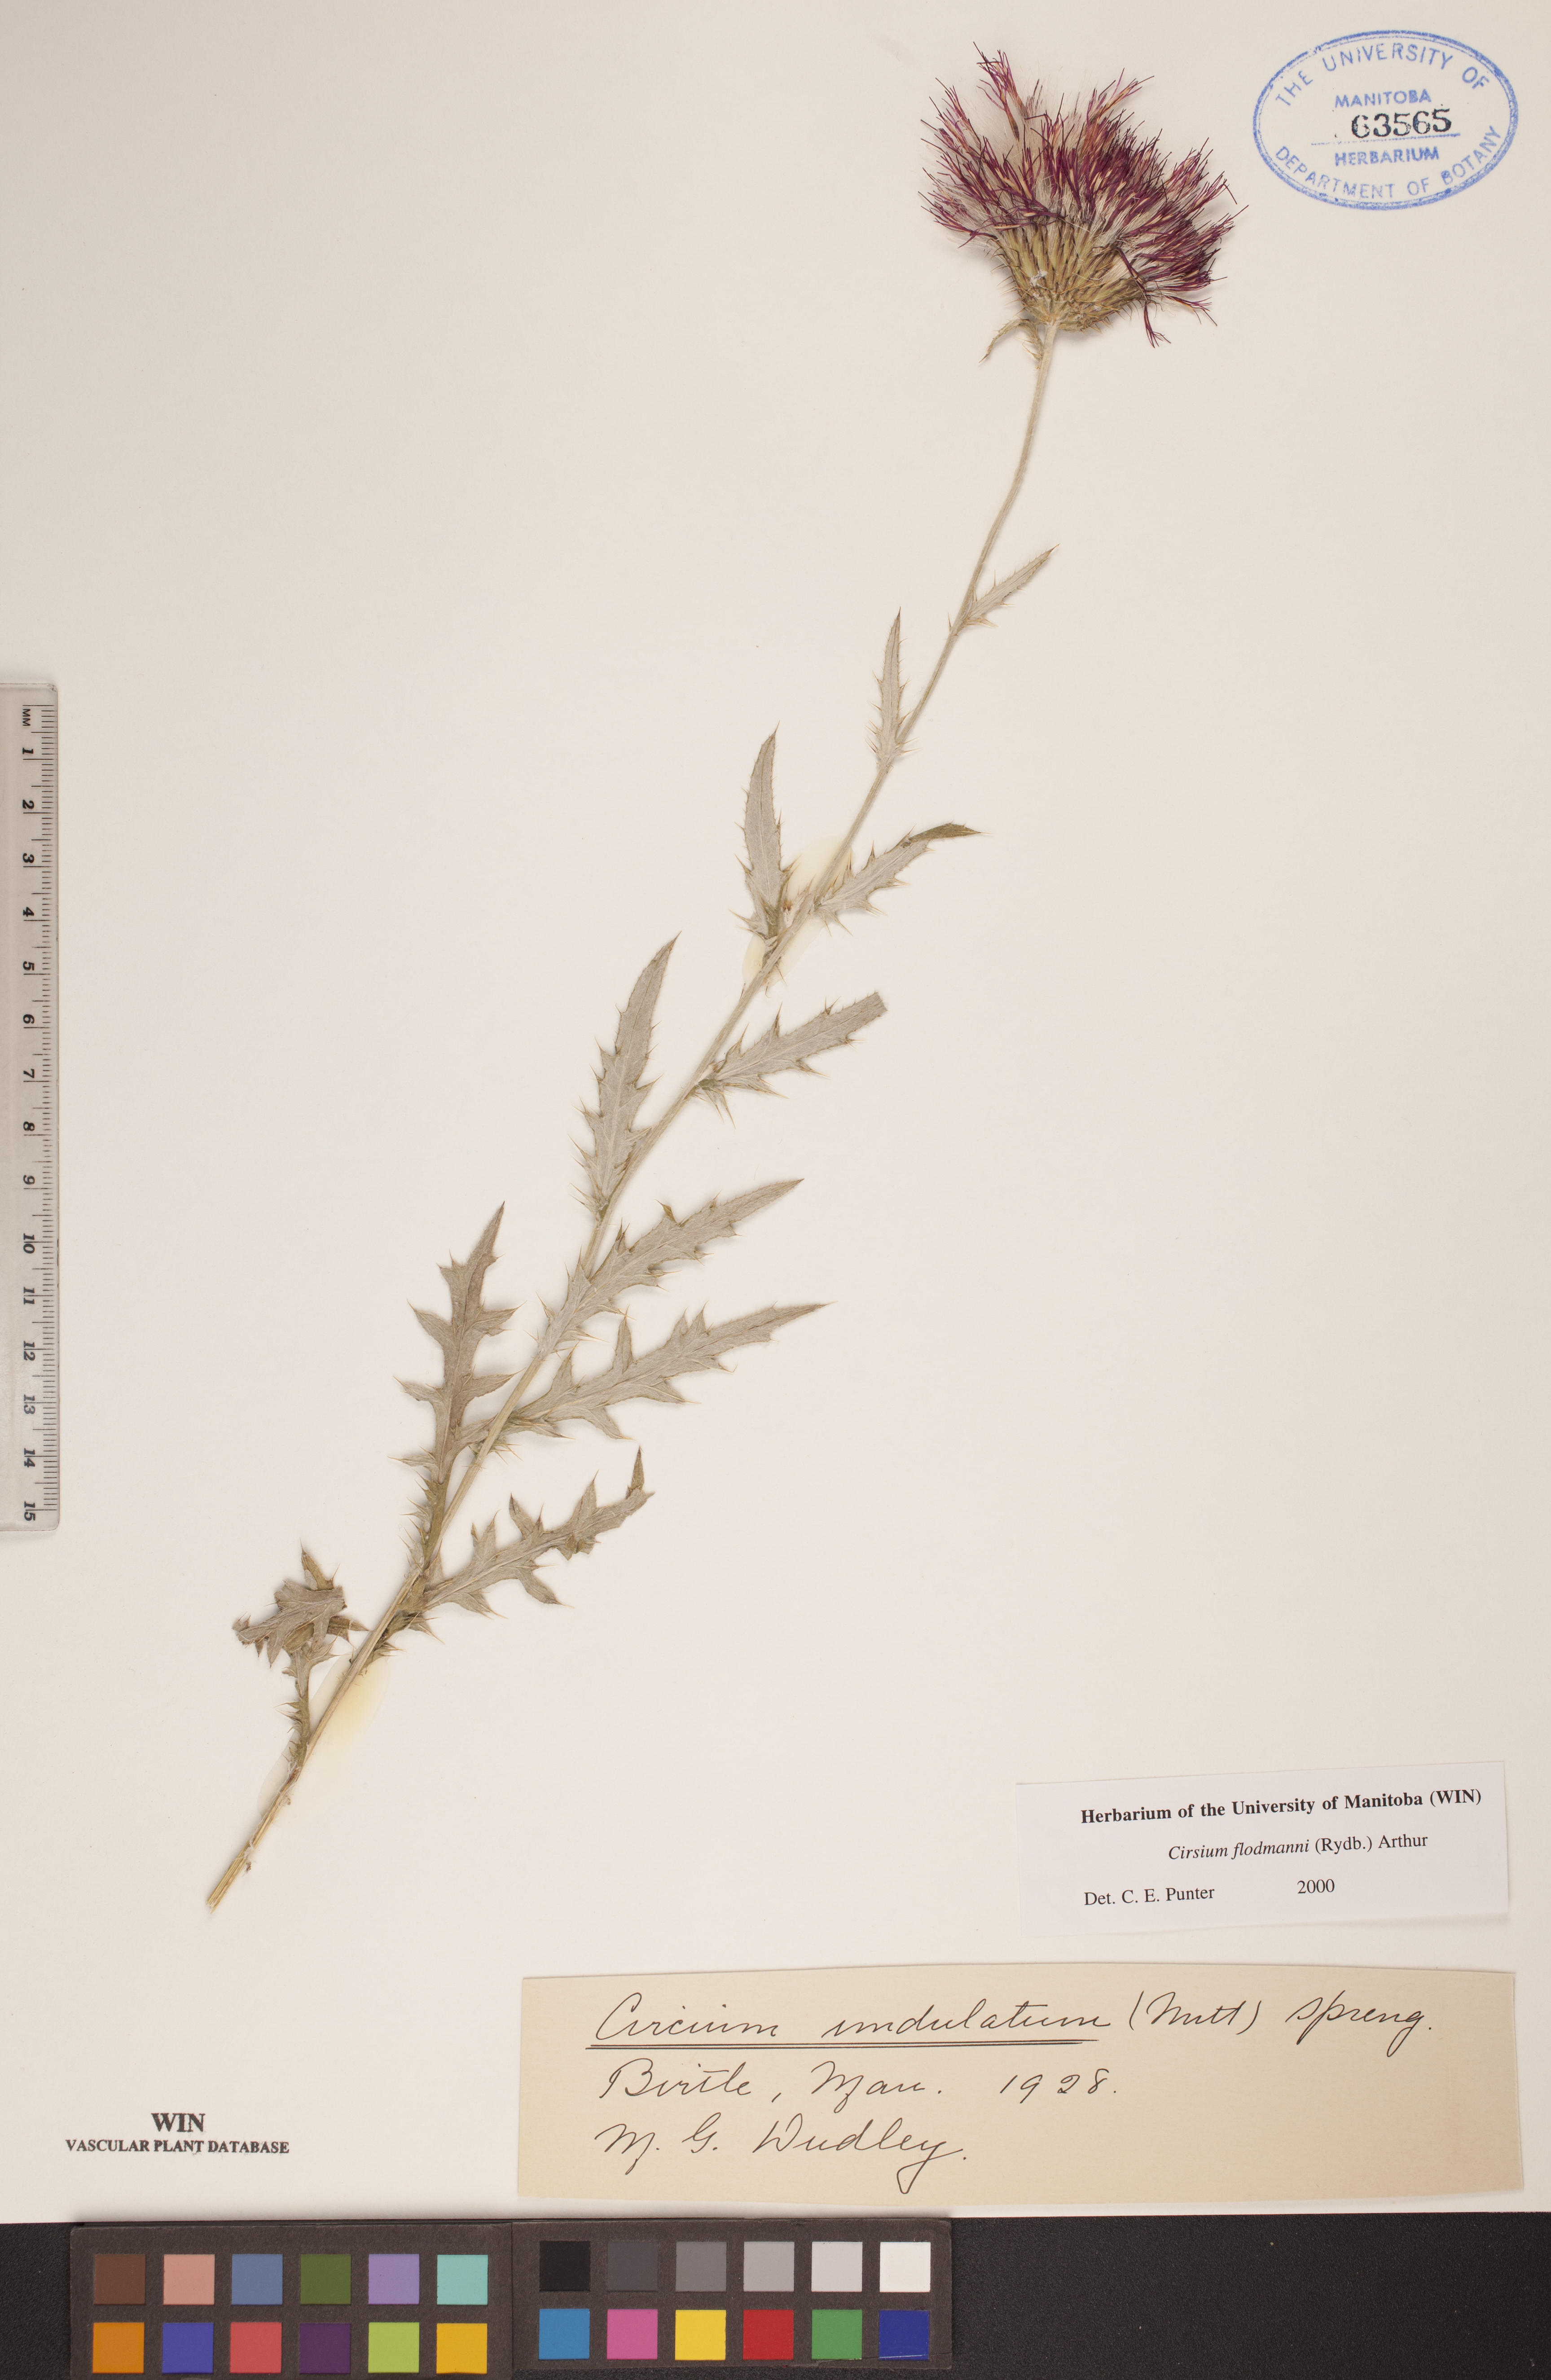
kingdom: Plantae
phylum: Tracheophyta
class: Magnoliopsida
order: Asterales
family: Asteraceae
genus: Cirsium
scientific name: Cirsium flodmanii
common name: Flodman's thistle
